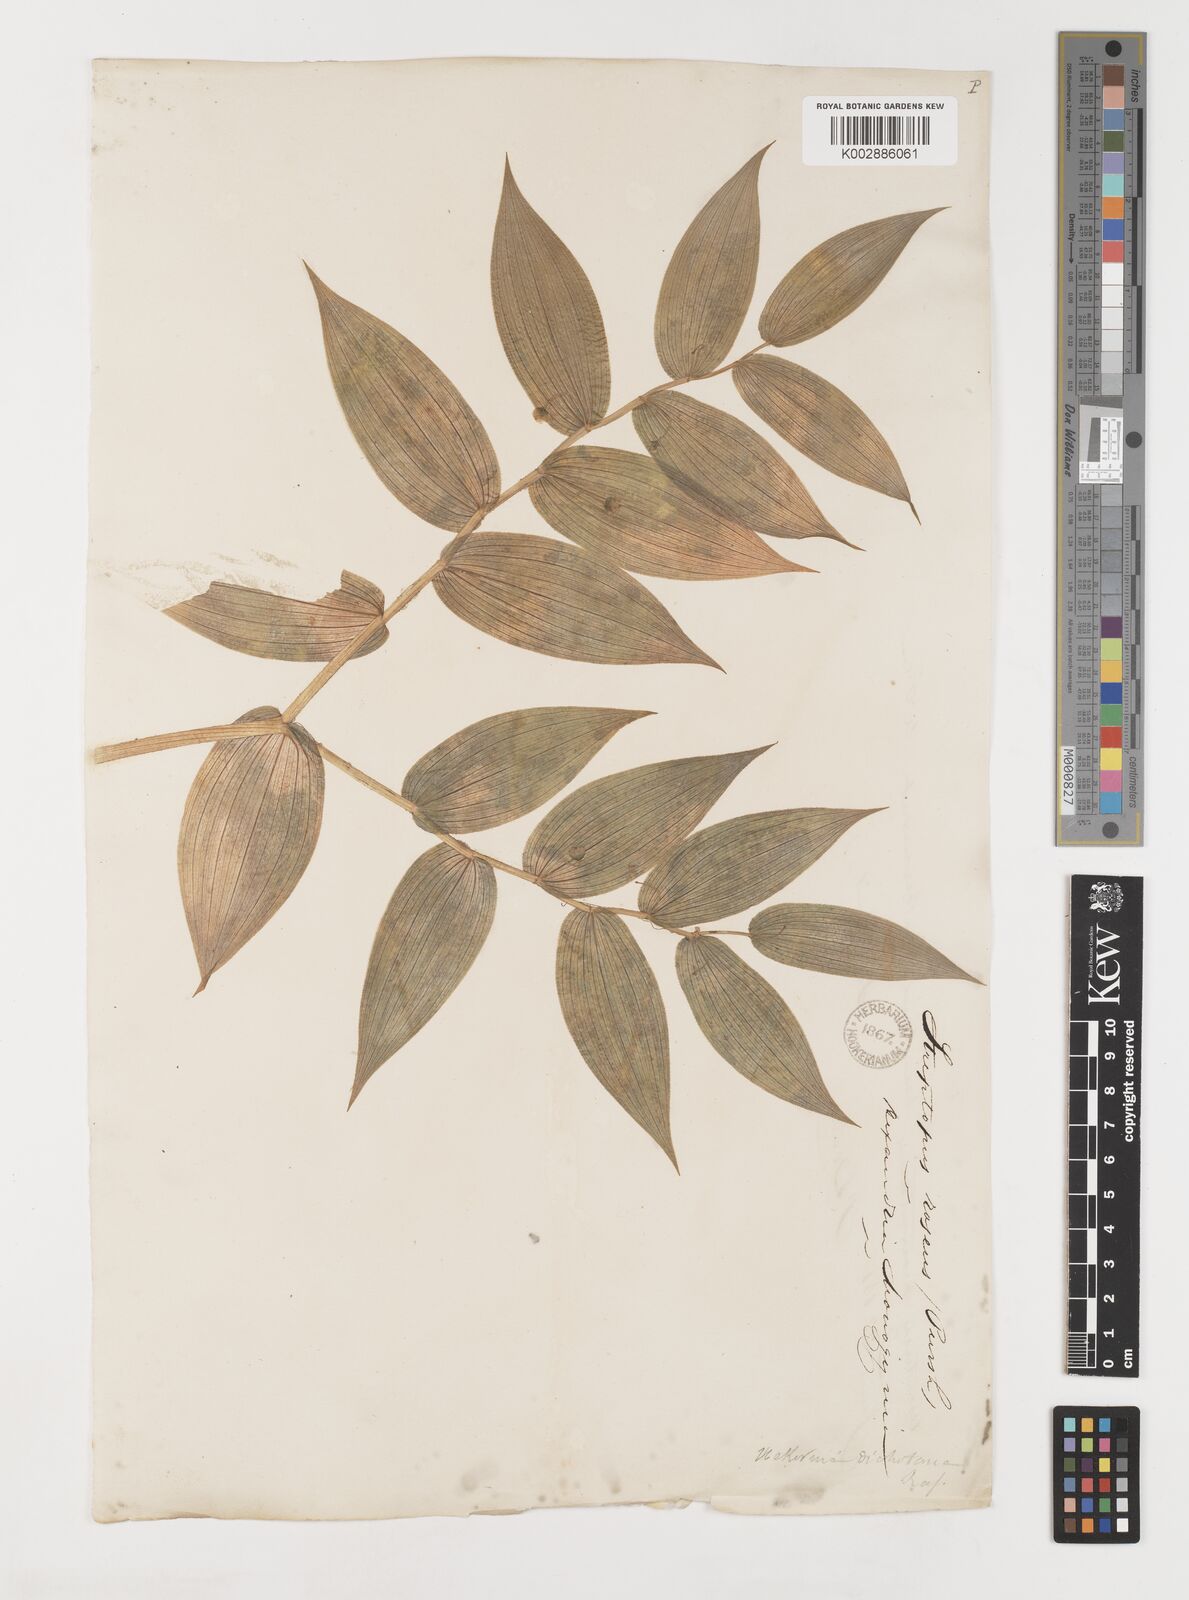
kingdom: Plantae
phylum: Tracheophyta
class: Liliopsida
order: Liliales
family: Liliaceae
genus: Streptopus
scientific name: Streptopus lanceolatus
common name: Rose mandarin
